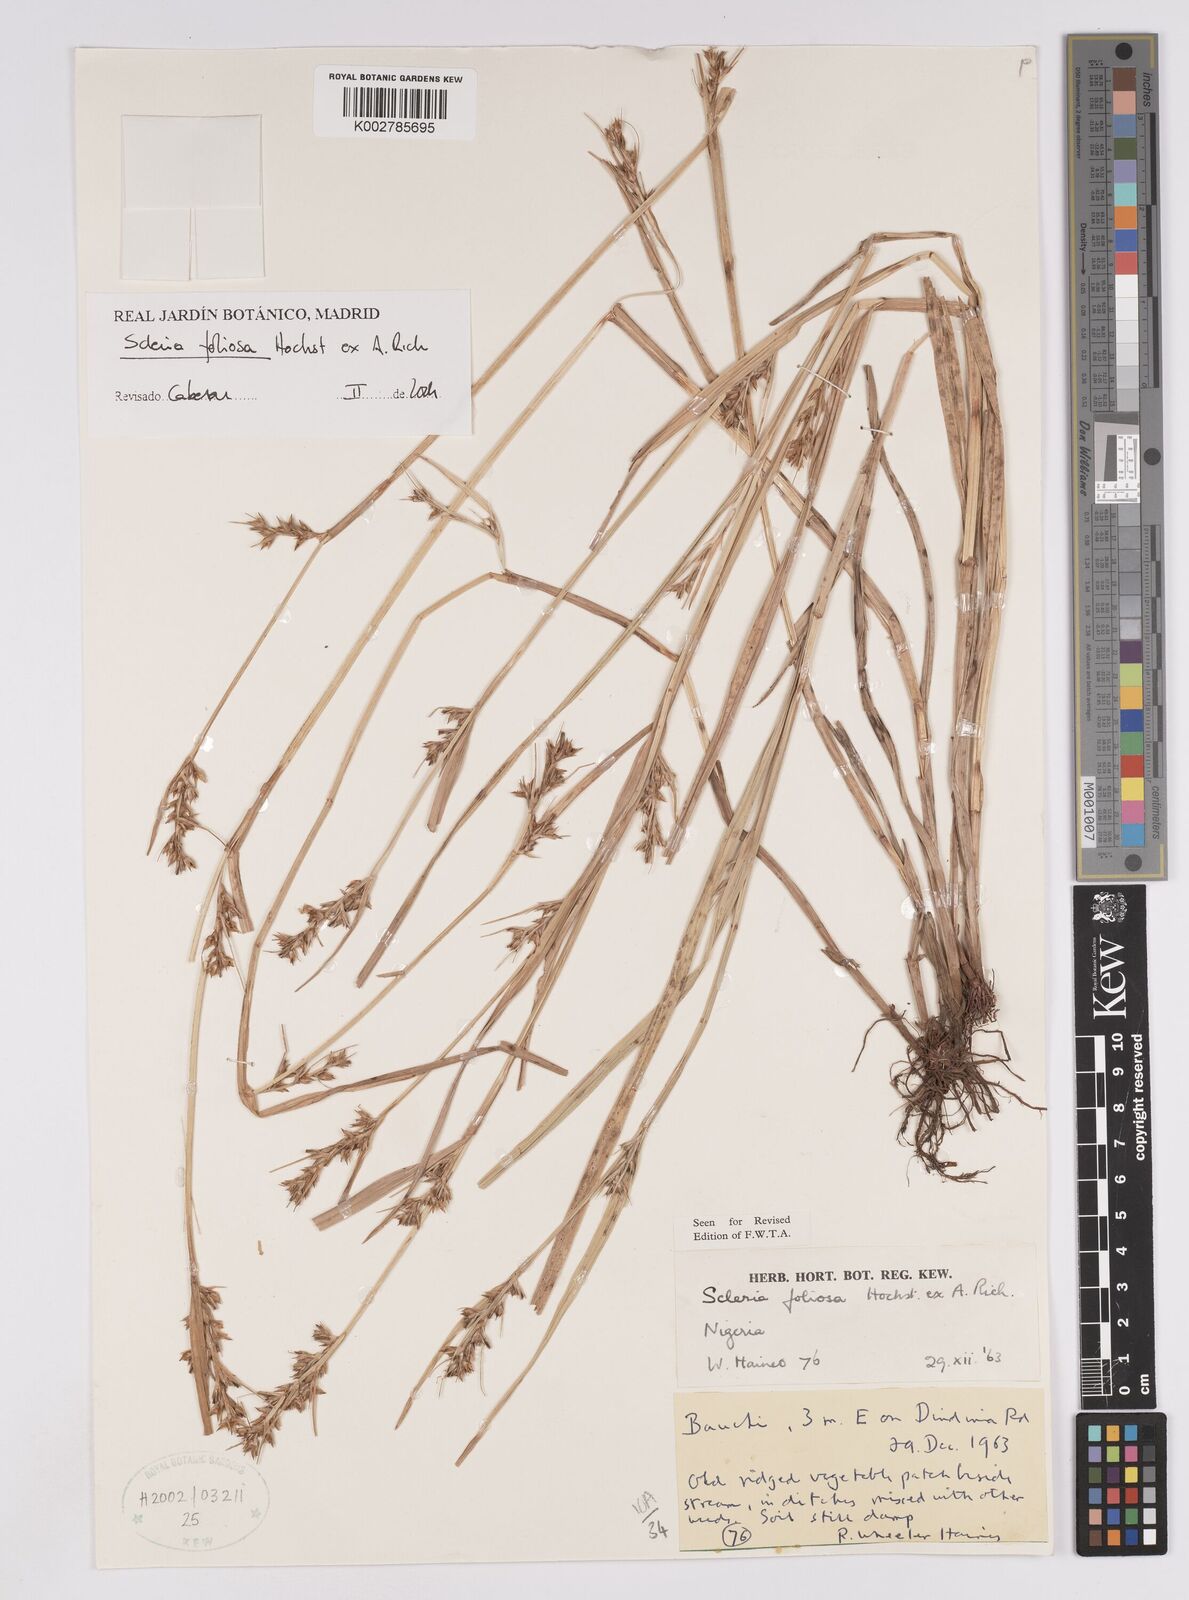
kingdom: Plantae
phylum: Tracheophyta
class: Liliopsida
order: Poales
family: Cyperaceae
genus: Scleria
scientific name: Scleria foliosa
